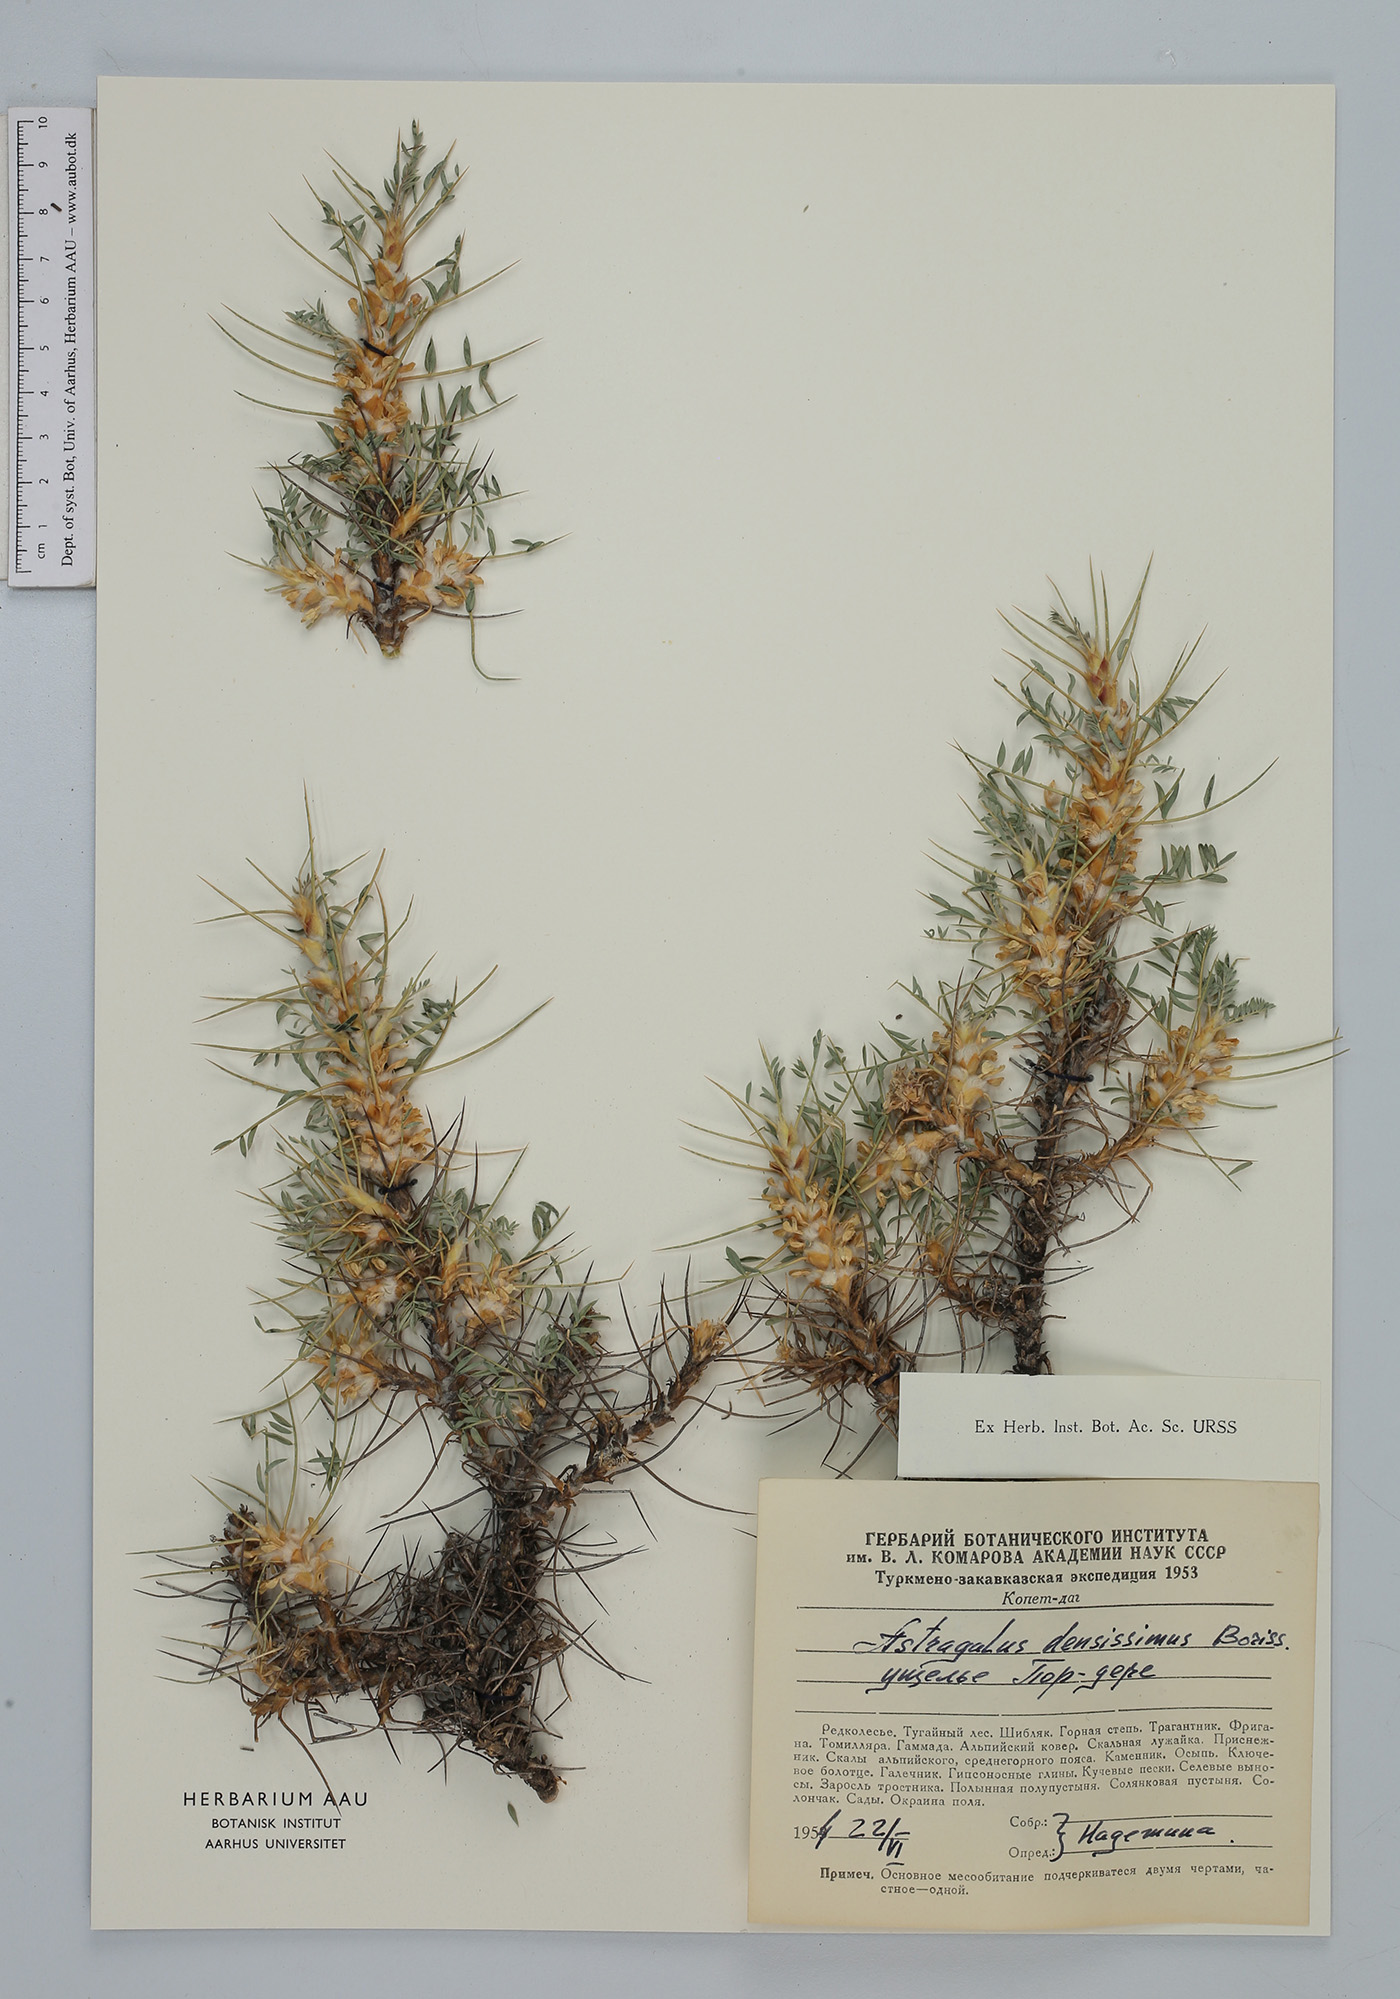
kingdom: Plantae
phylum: Tracheophyta
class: Magnoliopsida
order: Fabales
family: Fabaceae
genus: Astragalus
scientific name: Astragalus verus
